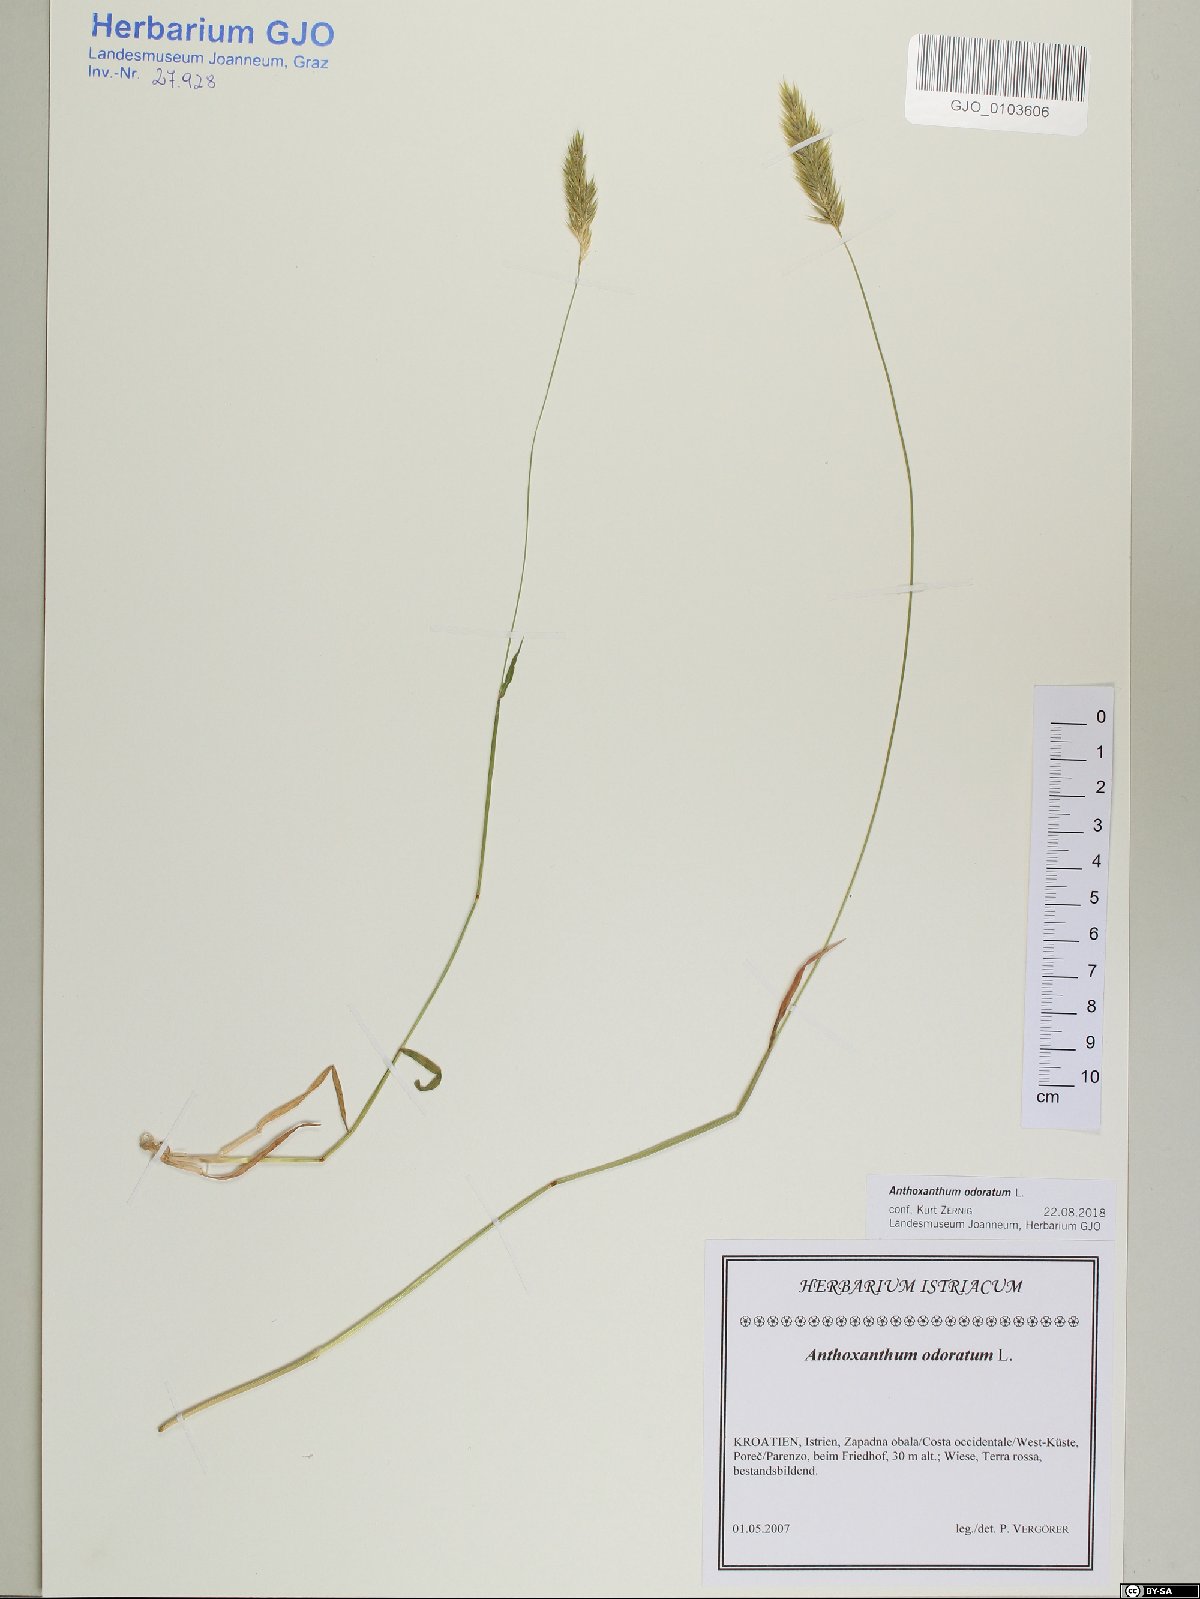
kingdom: Plantae
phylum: Tracheophyta
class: Liliopsida
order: Poales
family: Poaceae
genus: Anthoxanthum
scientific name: Anthoxanthum odoratum
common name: Sweet vernalgrass
